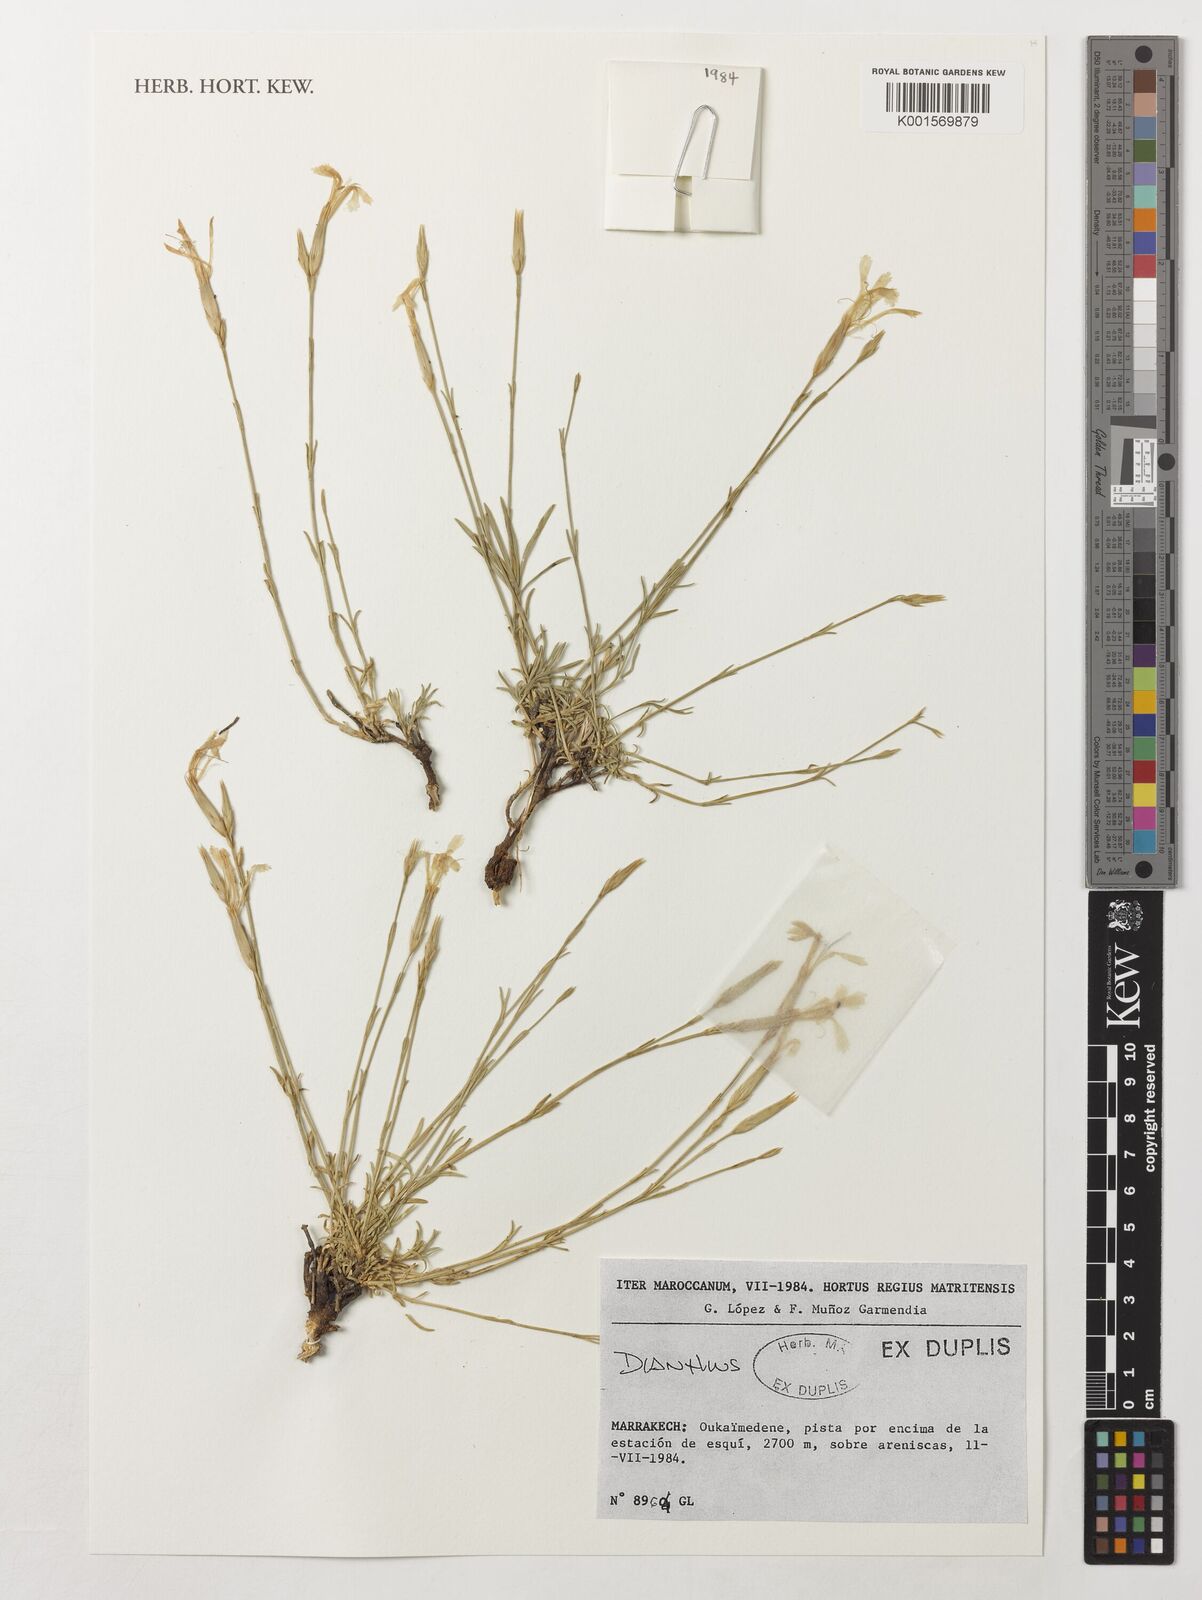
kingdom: Plantae
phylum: Tracheophyta
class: Magnoliopsida
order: Caryophyllales
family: Caryophyllaceae
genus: Dianthus
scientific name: Dianthus
